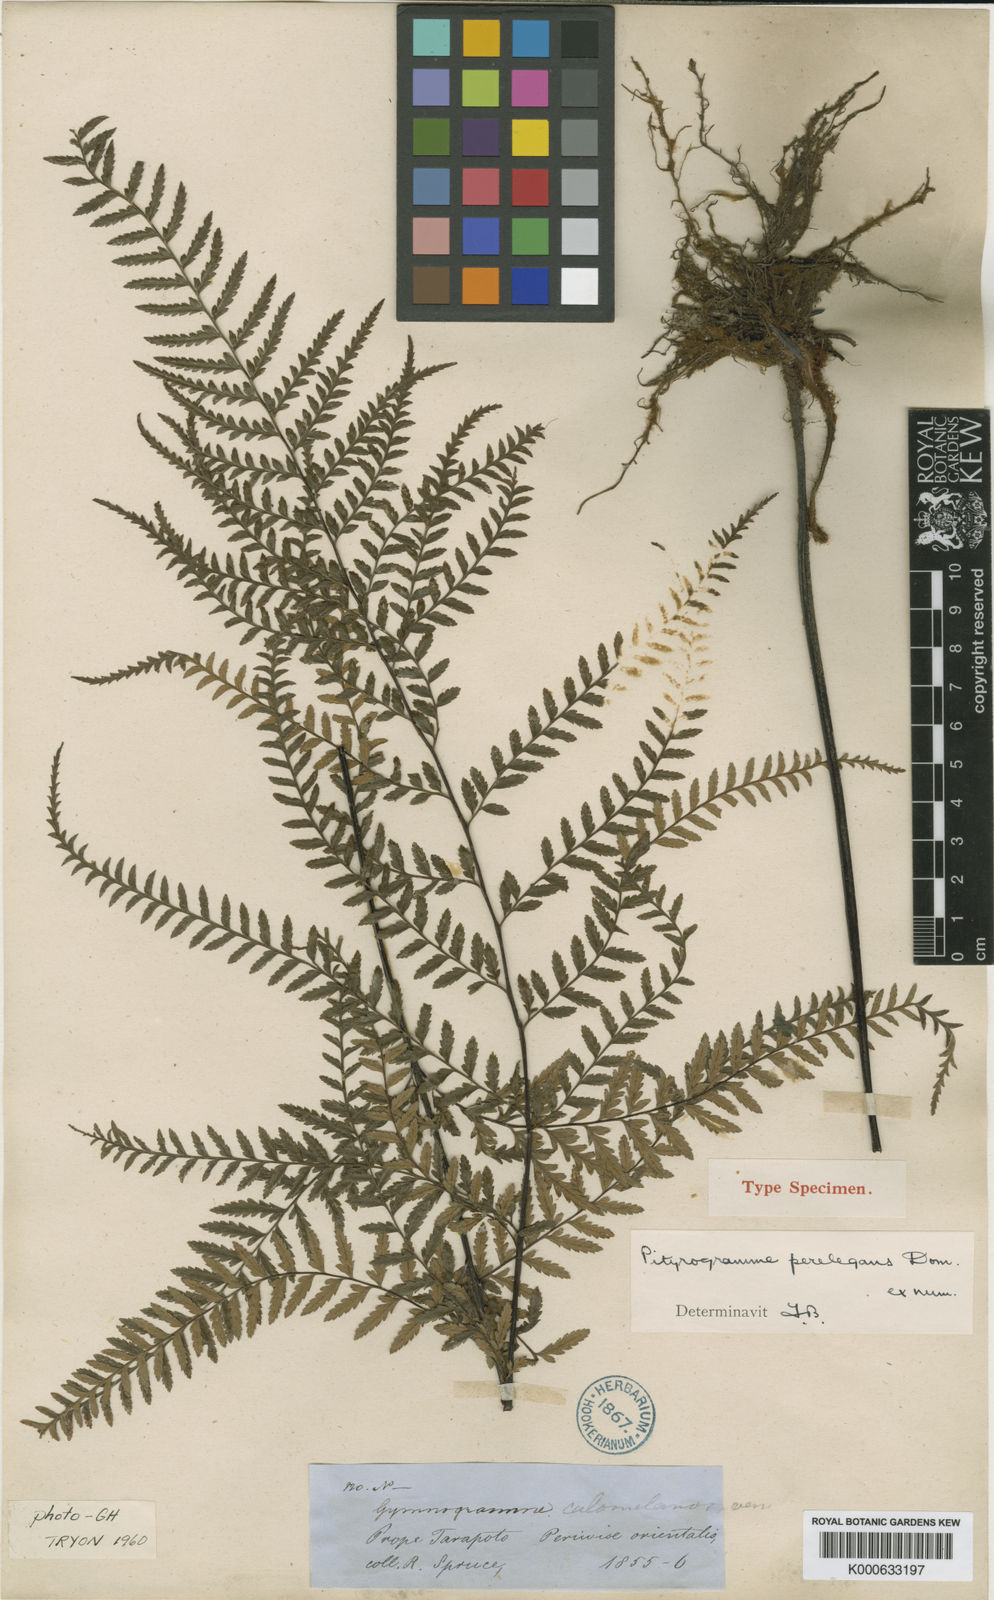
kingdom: Plantae
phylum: Tracheophyta
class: Polypodiopsida
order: Polypodiales
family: Pteridaceae
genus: Pityrogramma
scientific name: Pityrogramma ochracea
